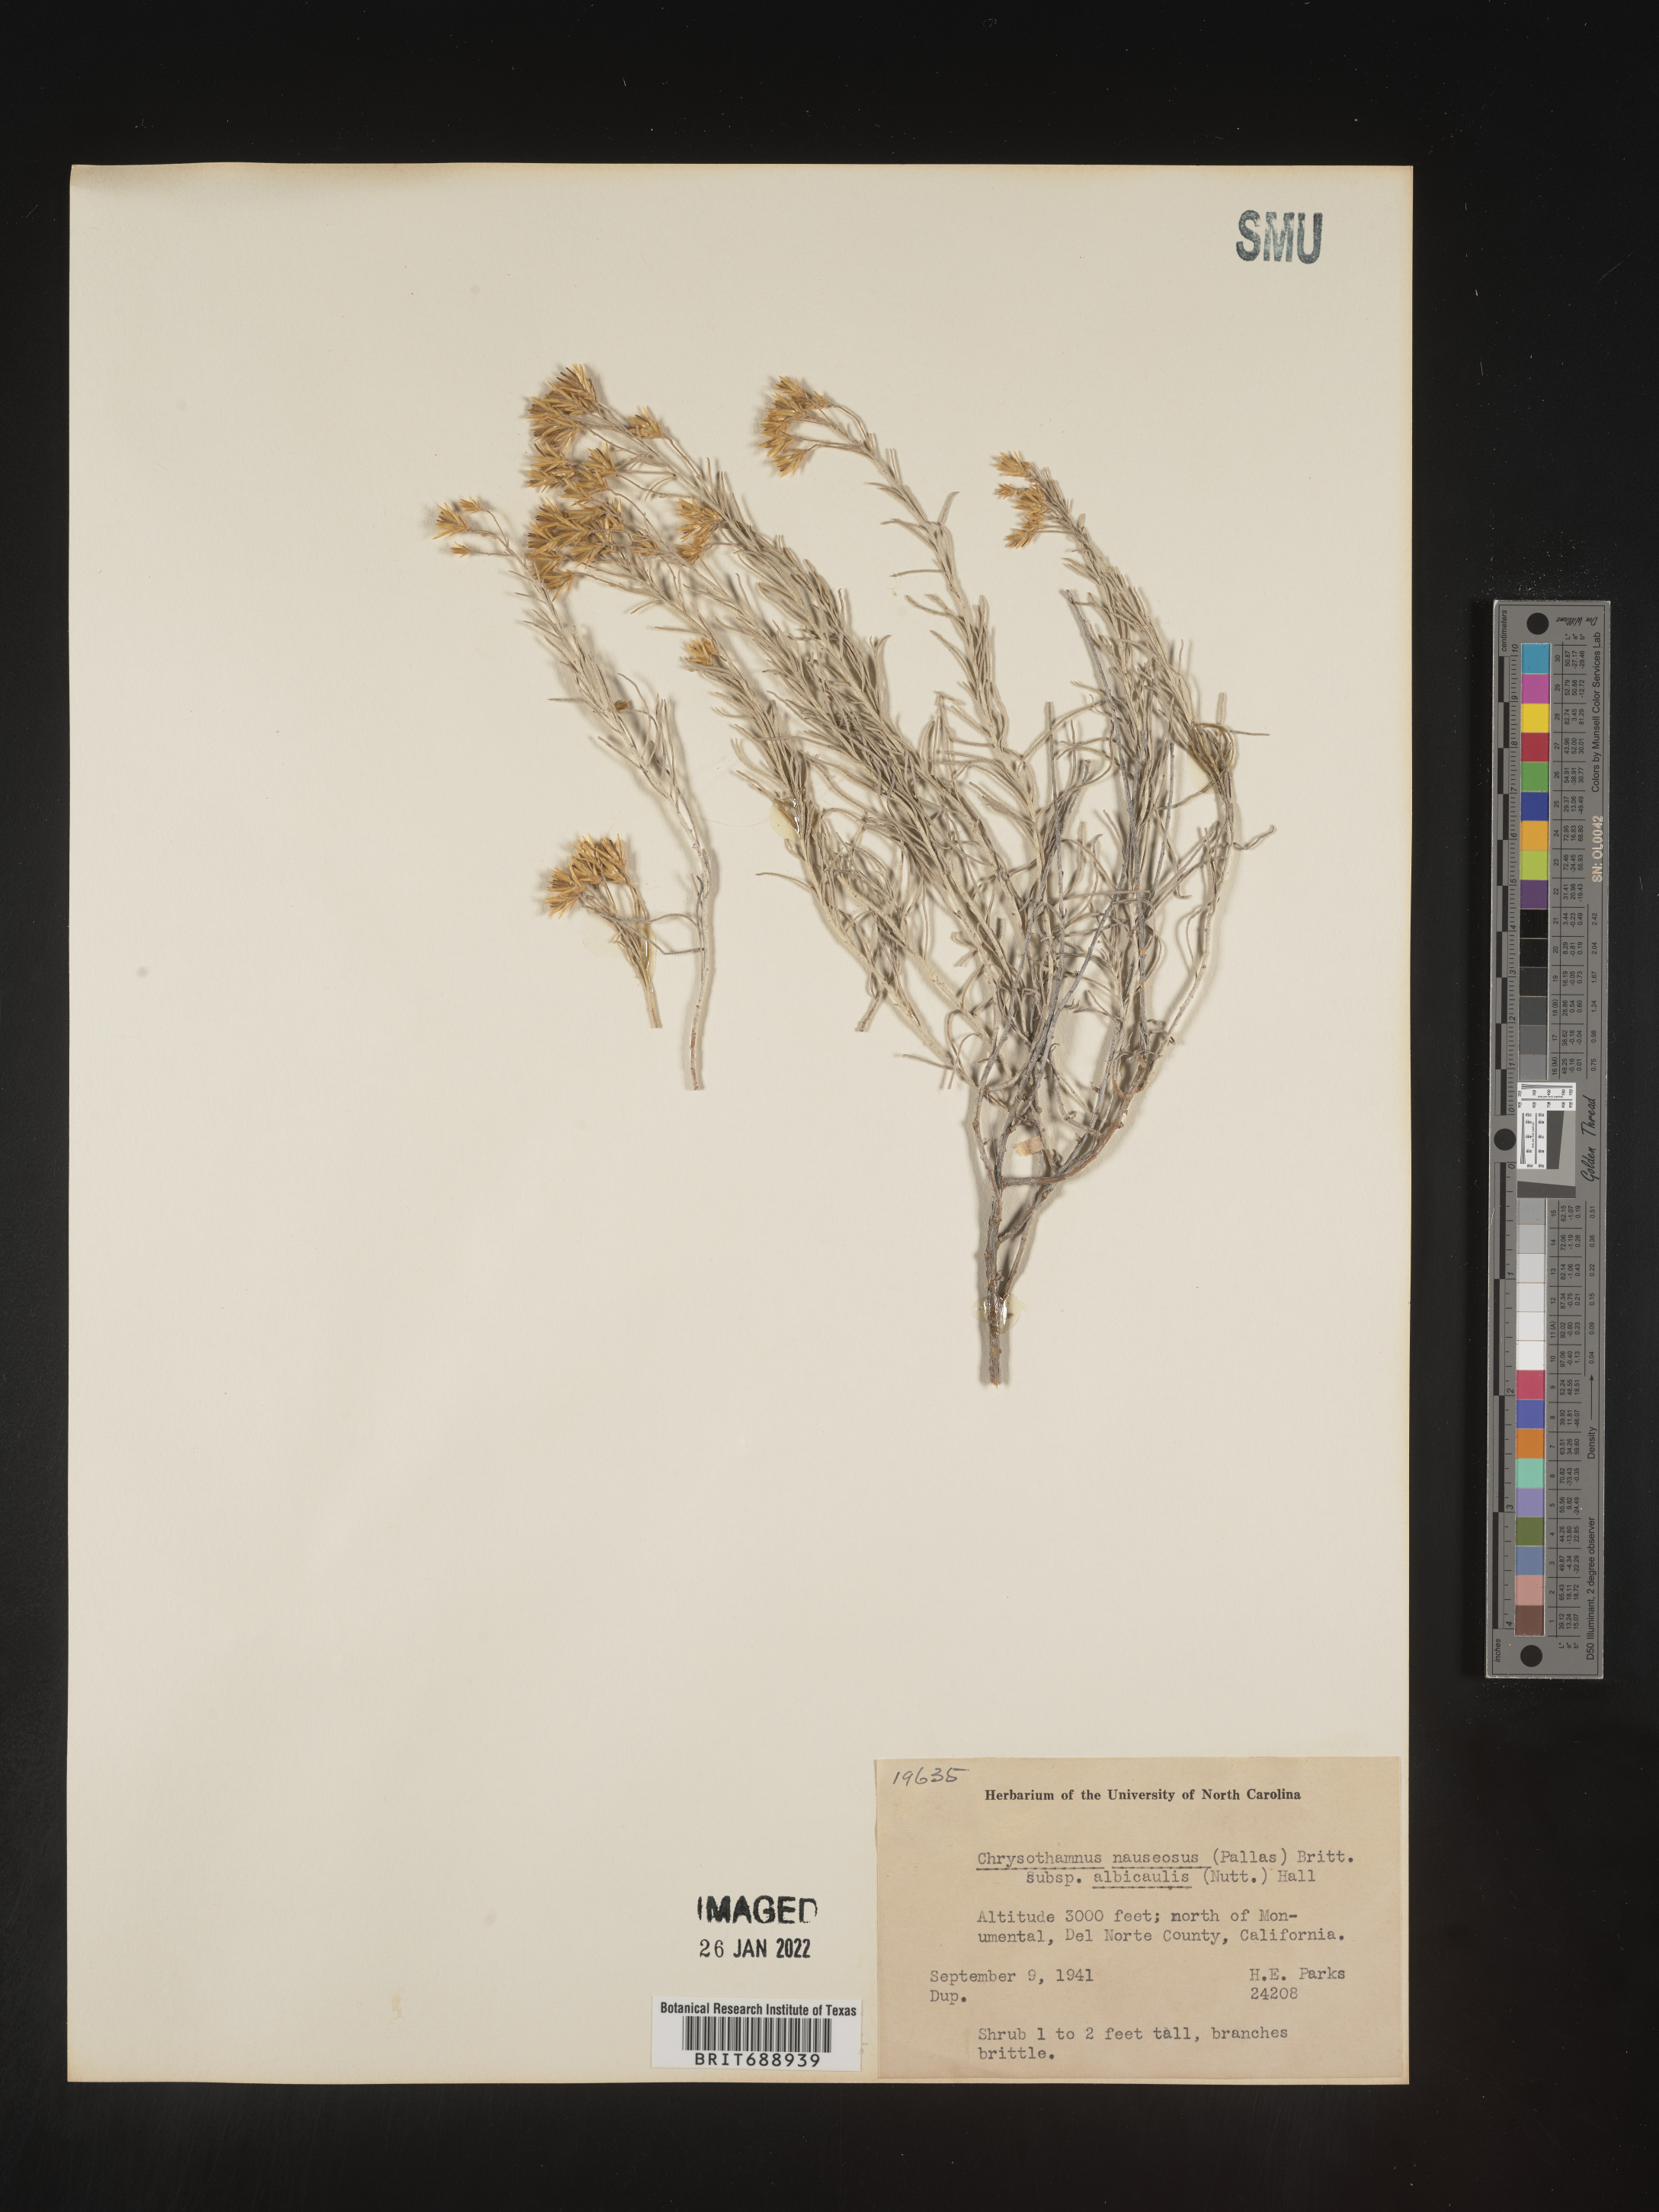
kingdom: Plantae
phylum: Tracheophyta
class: Magnoliopsida
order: Asterales
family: Asteraceae
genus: Ericameria
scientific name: Ericameria nauseosa
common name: Rubber rabbitbrush
